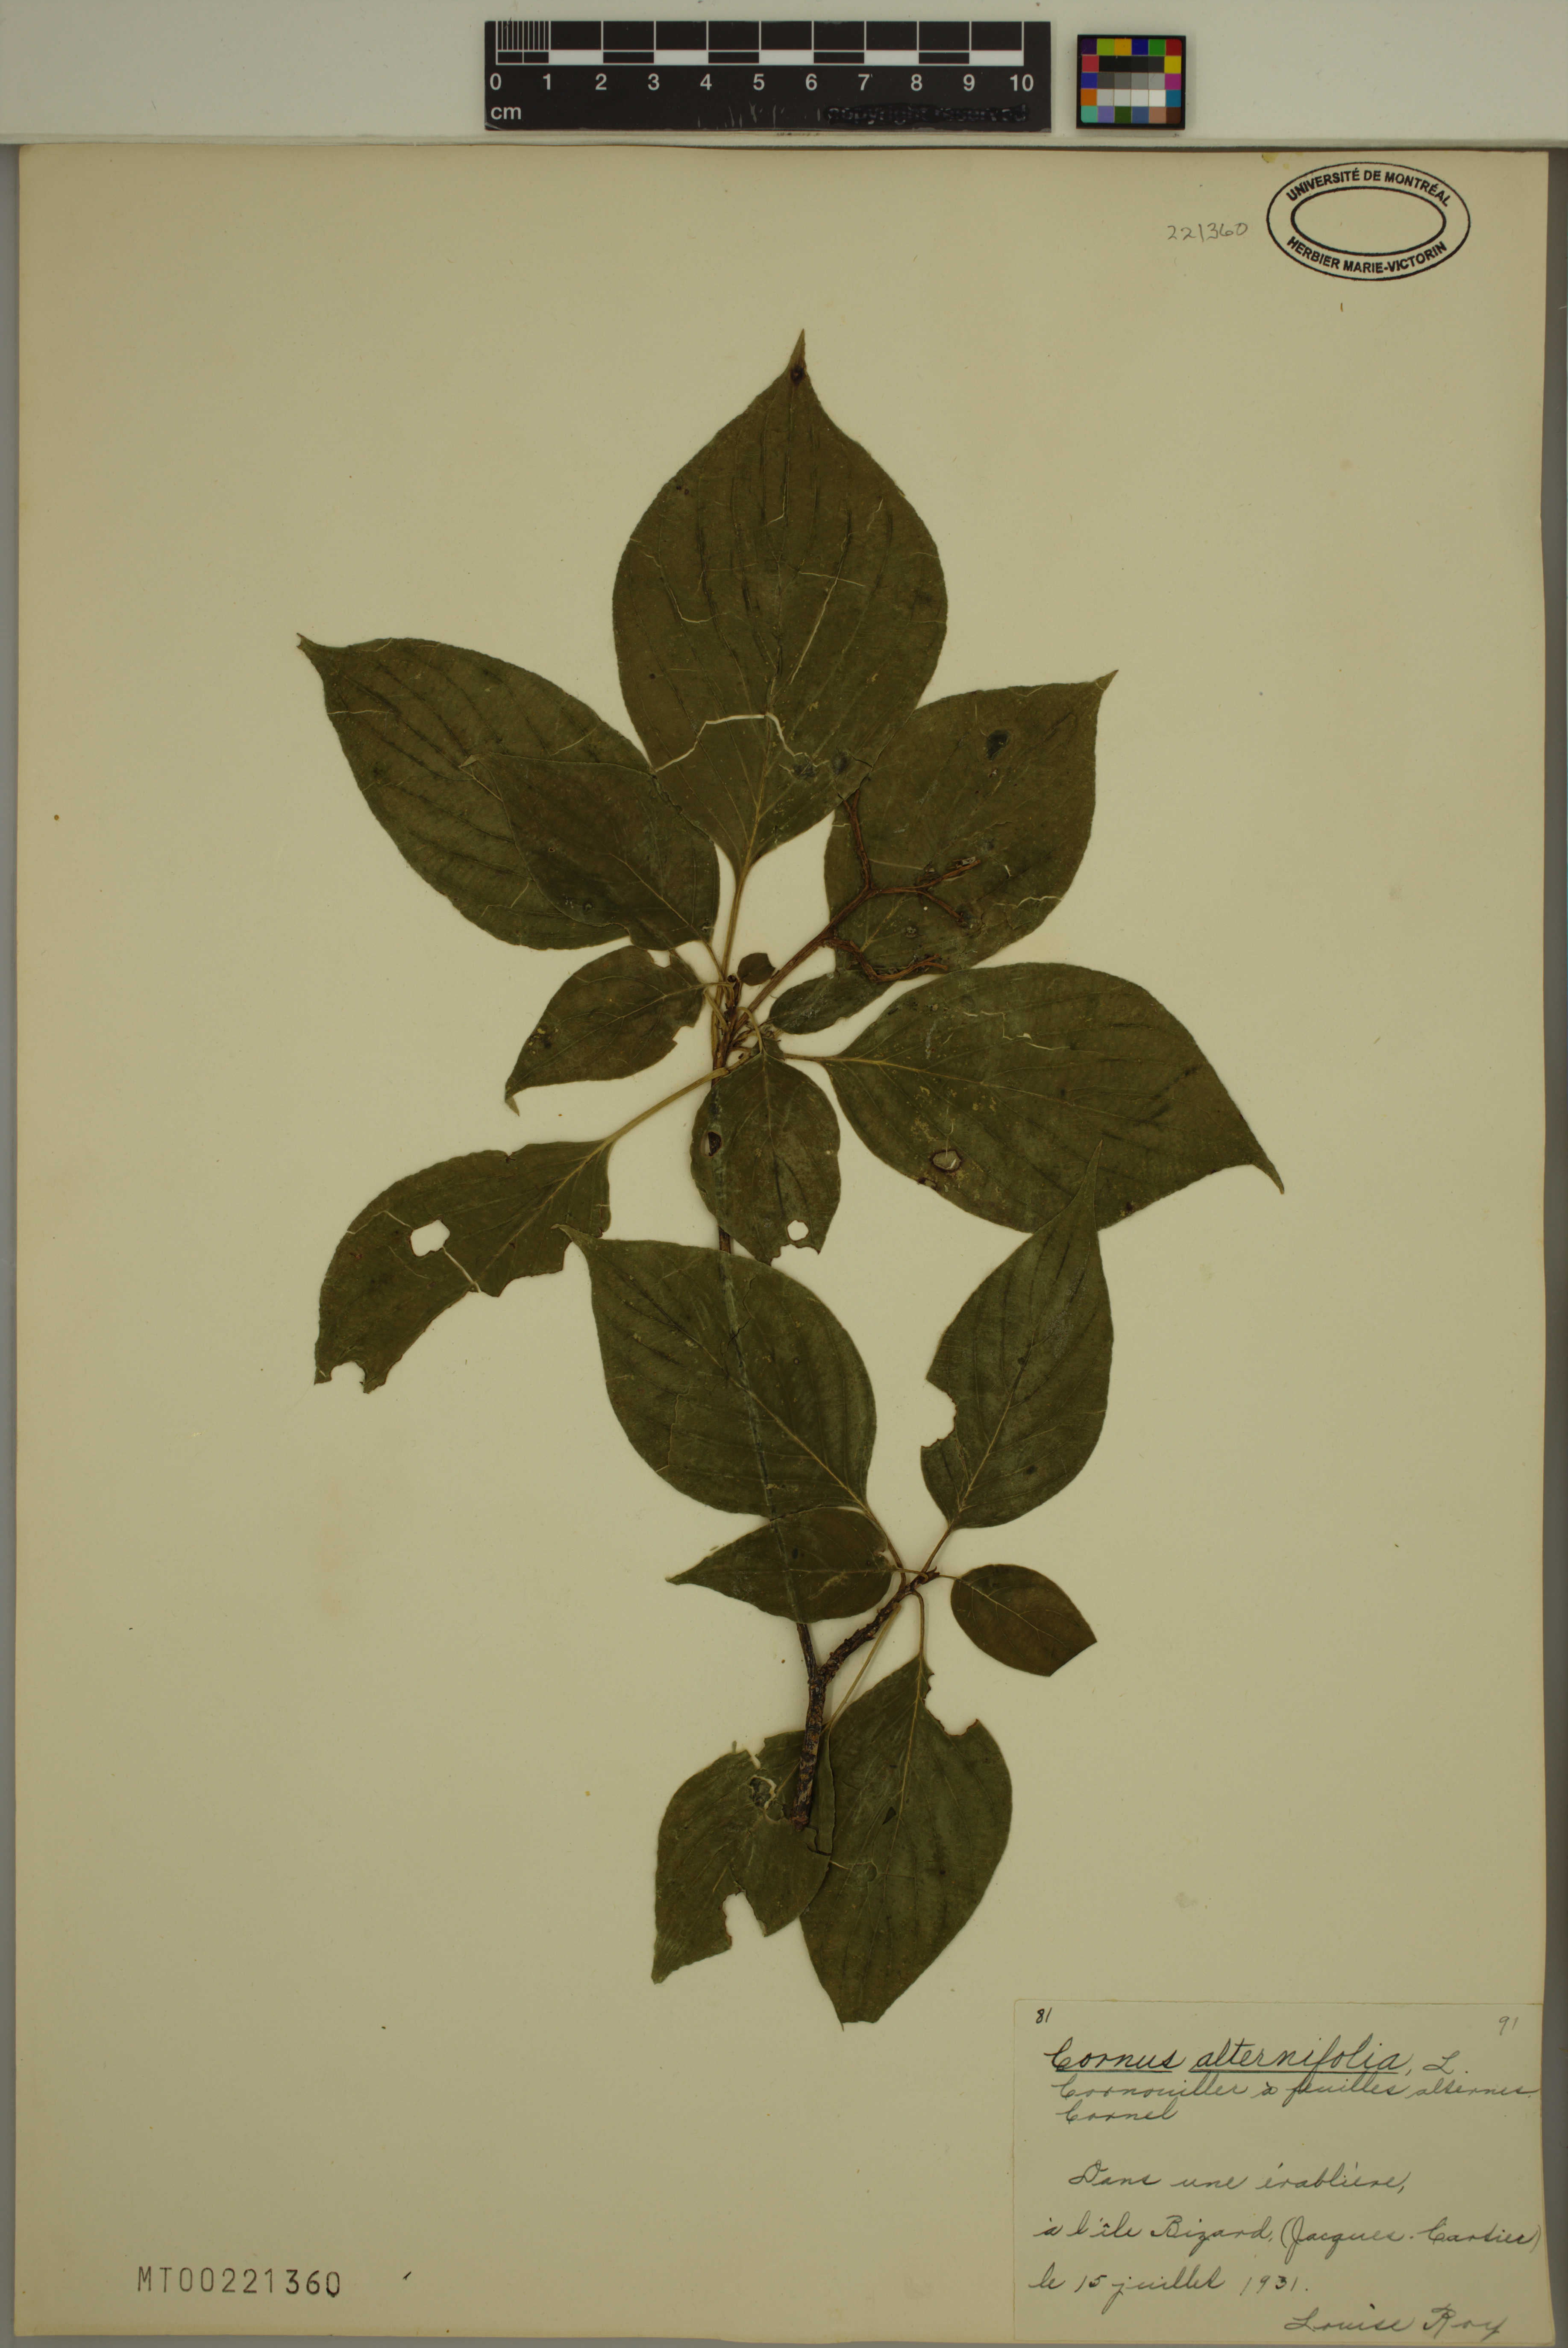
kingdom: Plantae
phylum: Tracheophyta
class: Magnoliopsida
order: Cornales
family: Cornaceae
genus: Cornus
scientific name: Cornus alternifolia
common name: Pagoda dogwood
